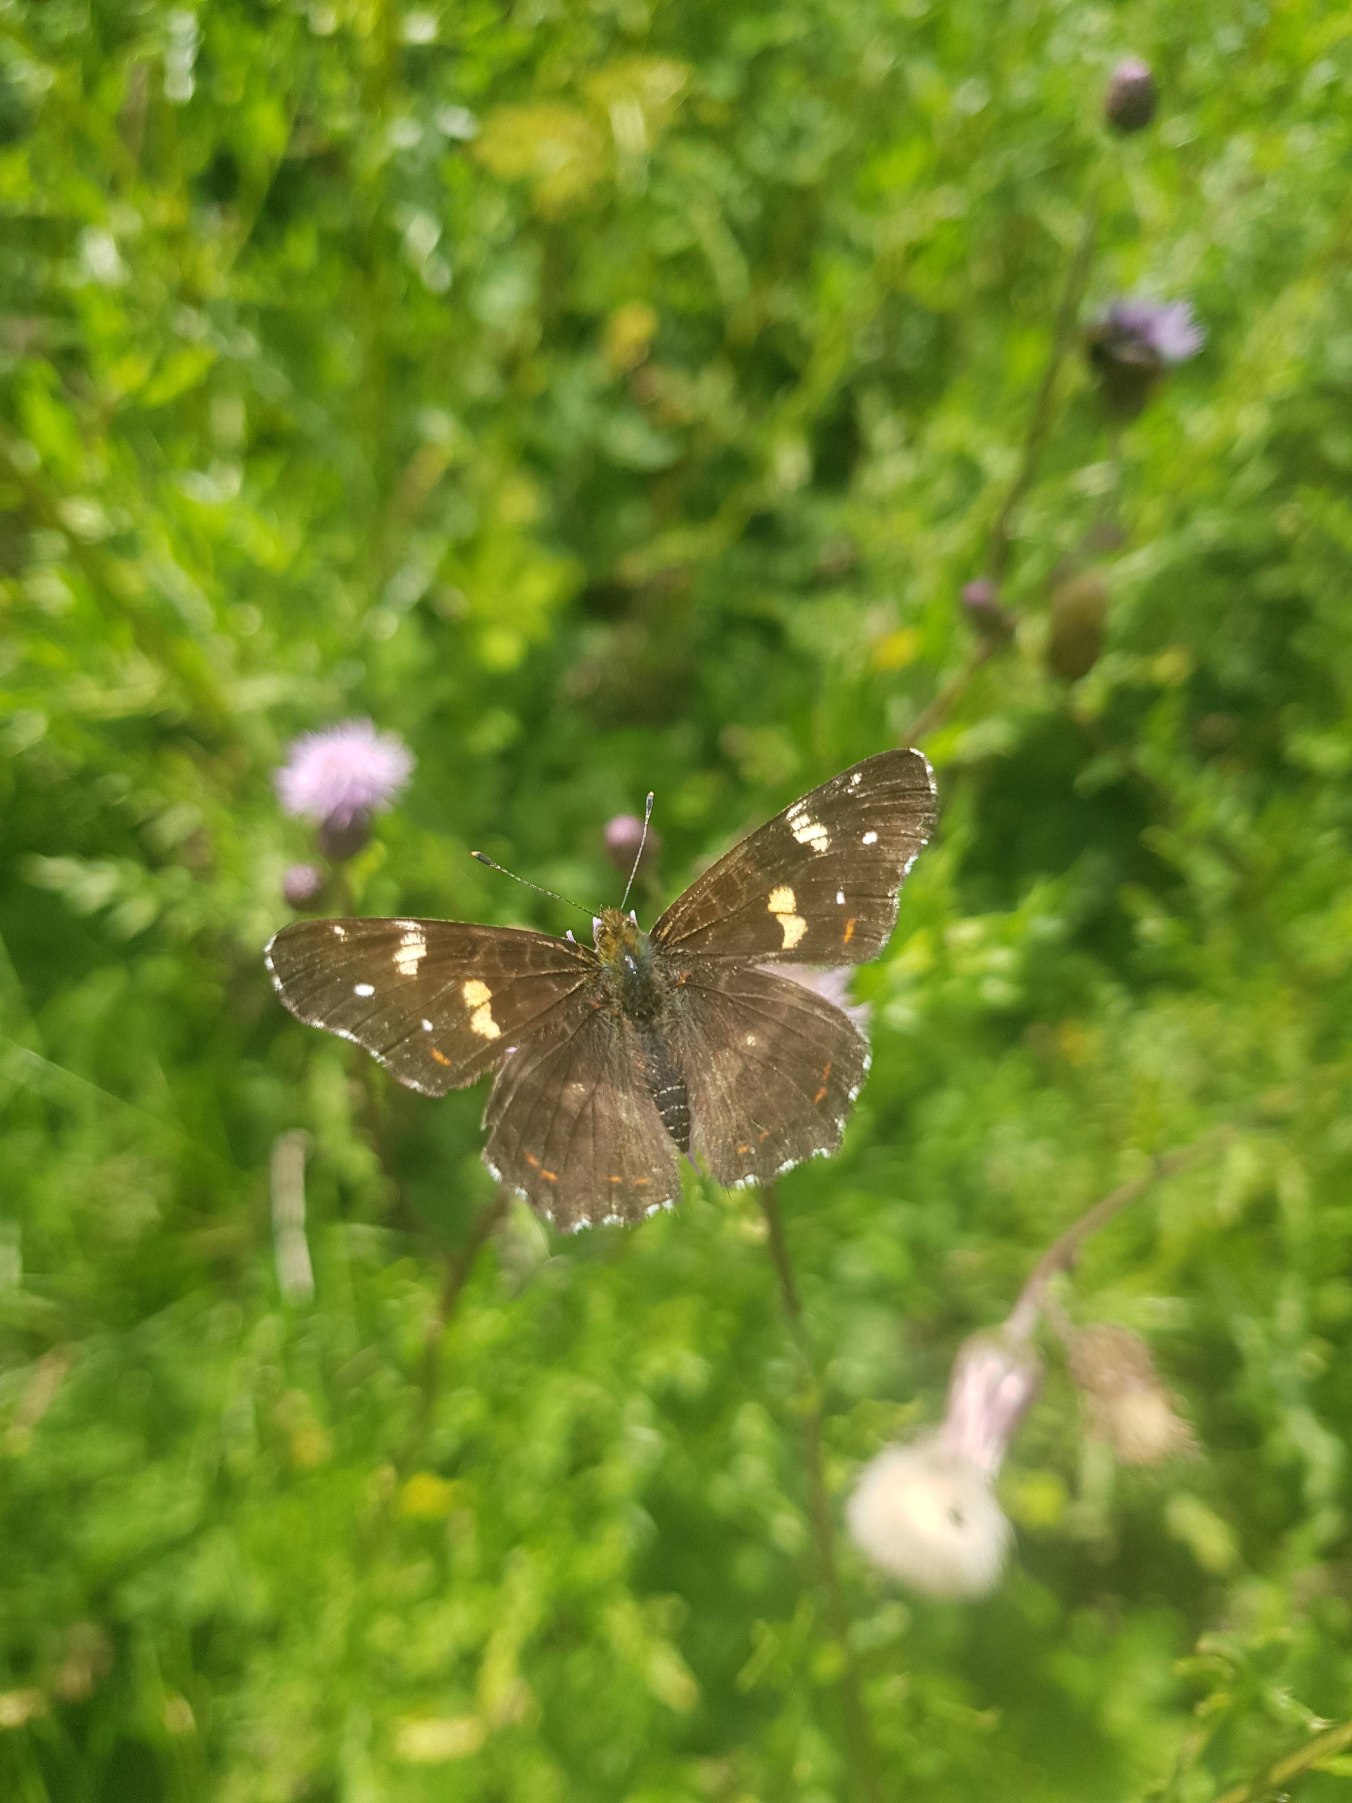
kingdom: Animalia
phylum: Arthropoda
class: Insecta
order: Lepidoptera
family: Nymphalidae
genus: Araschnia
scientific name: Araschnia levana
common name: Nældesommerfugl
